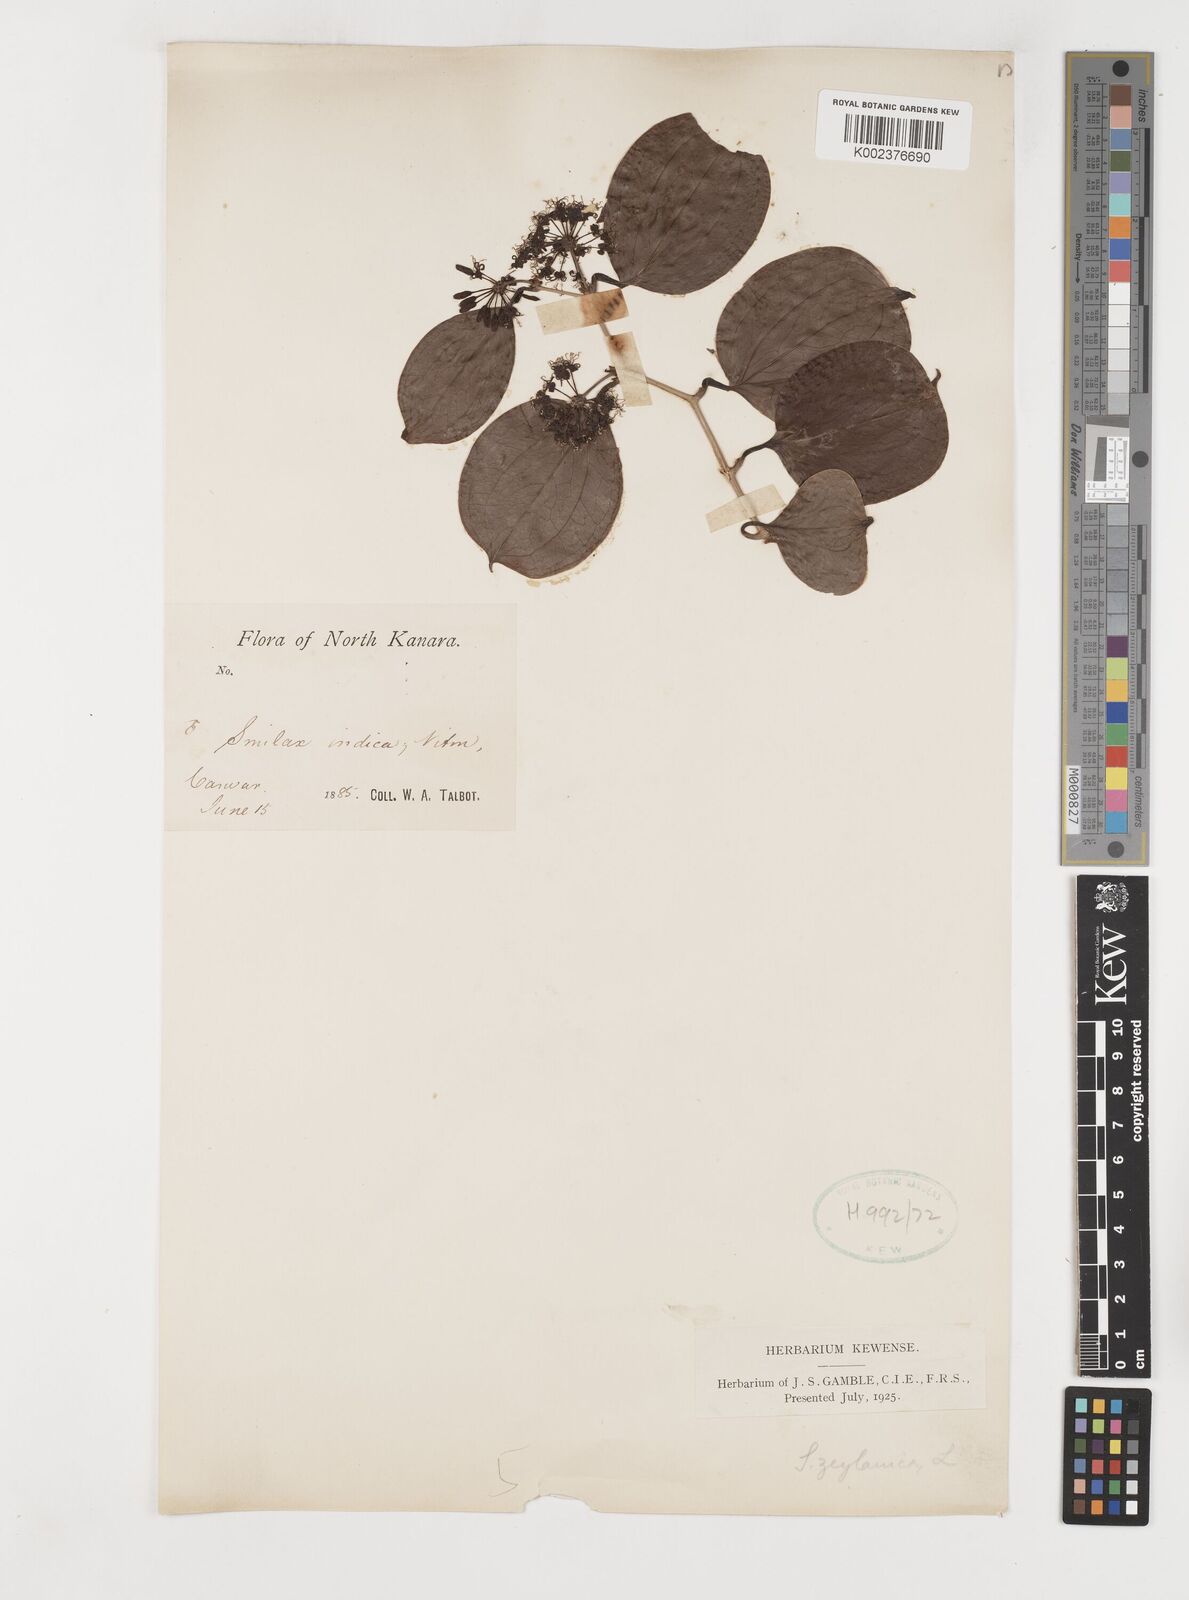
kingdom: Plantae
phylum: Tracheophyta
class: Liliopsida
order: Liliales
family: Smilacaceae
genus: Smilax
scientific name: Smilax zeylanica
